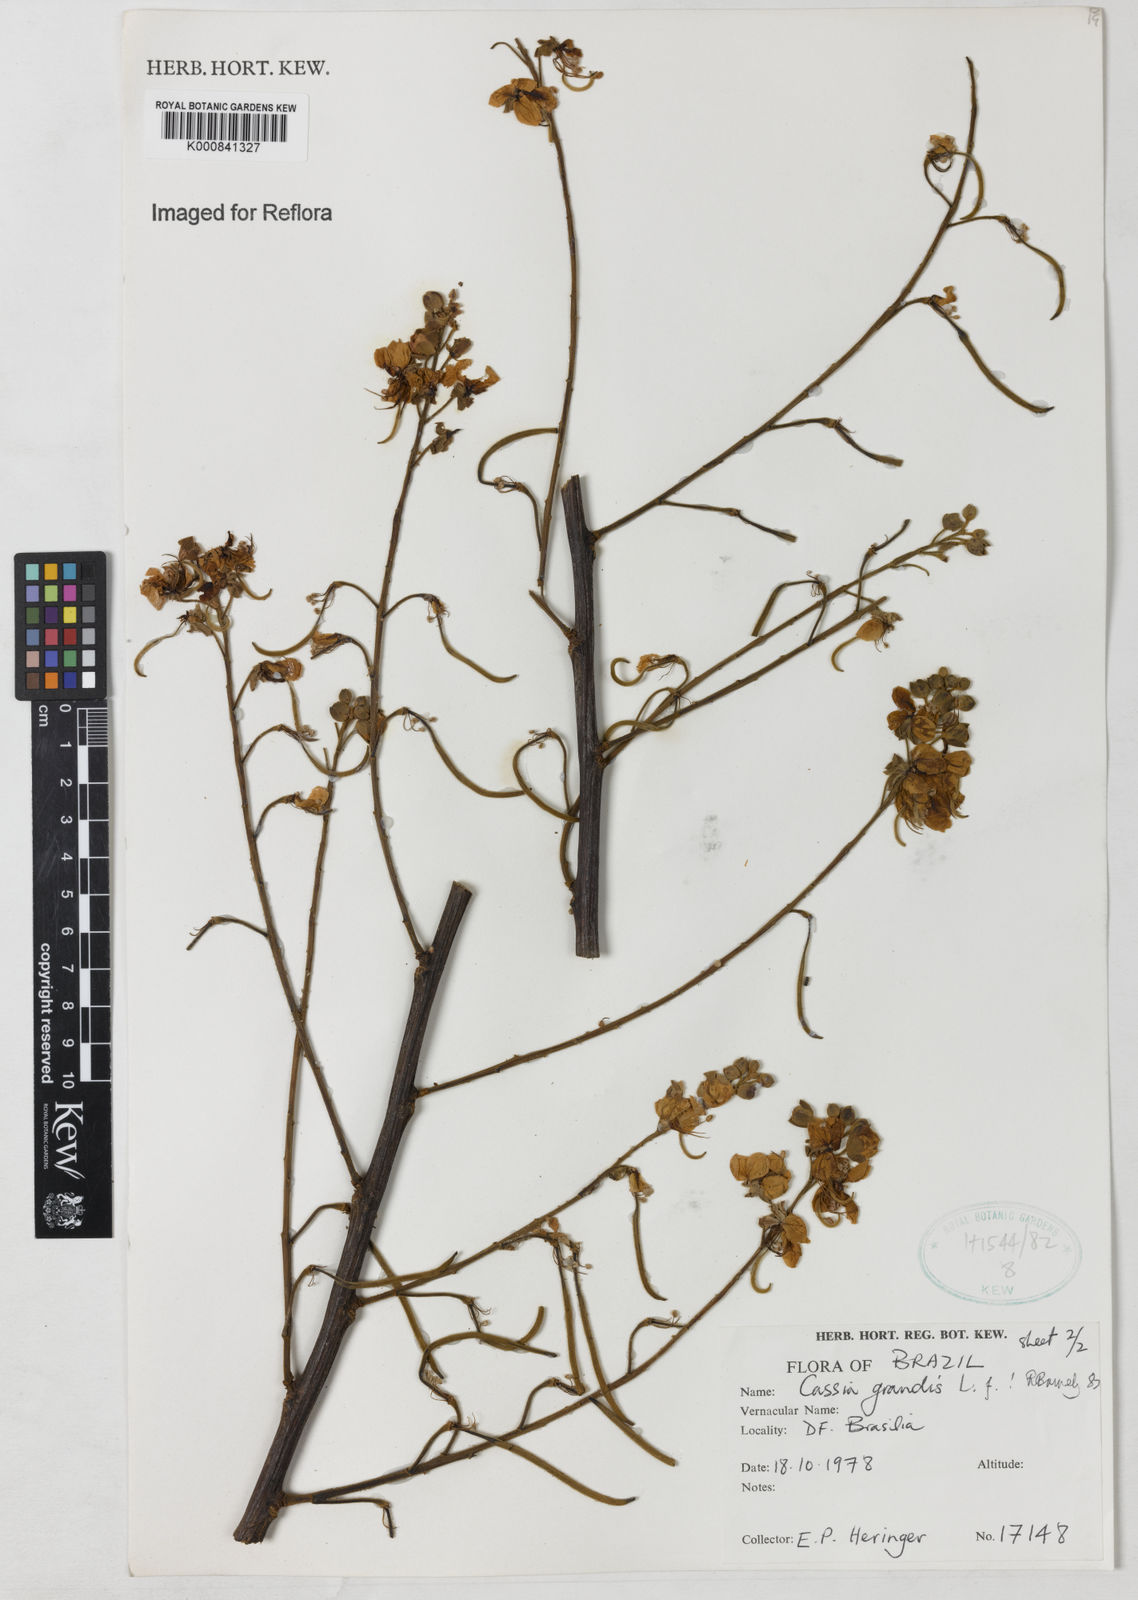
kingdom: Plantae
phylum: Tracheophyta
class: Magnoliopsida
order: Fabales
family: Fabaceae
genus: Cassia
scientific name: Cassia grandis
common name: Appleblossom cassia
